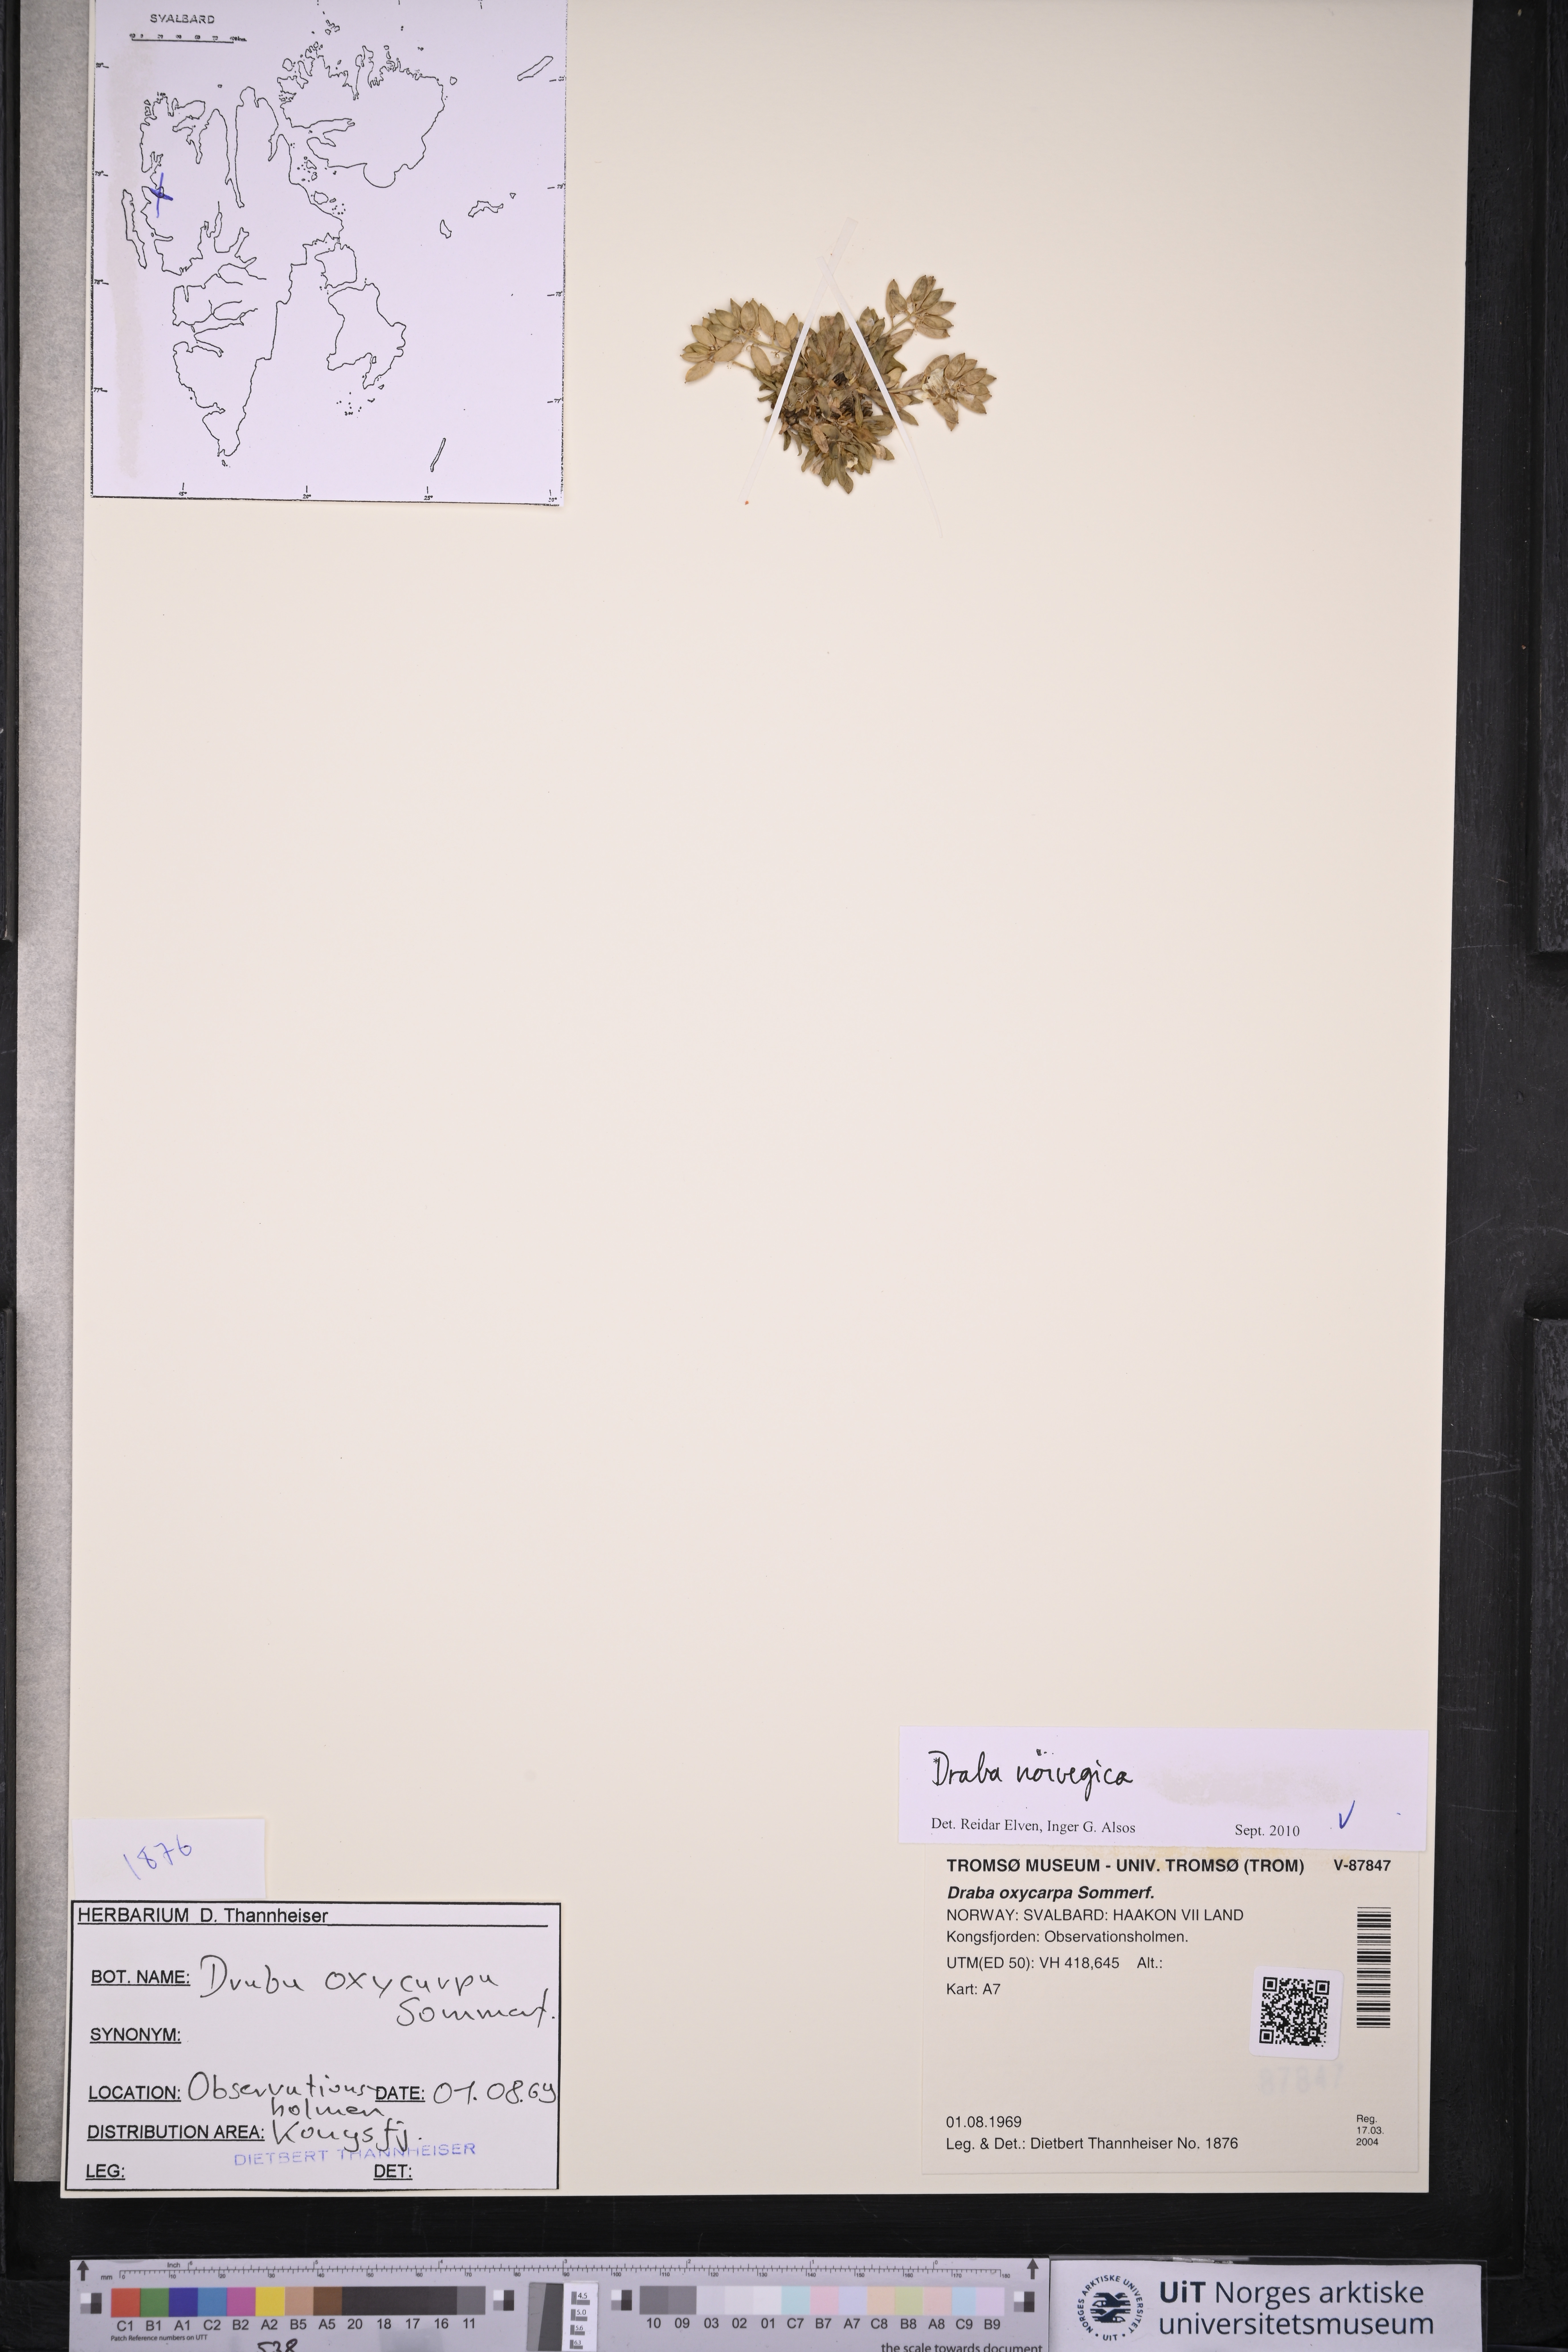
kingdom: Plantae
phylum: Tracheophyta
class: Magnoliopsida
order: Brassicales
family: Brassicaceae
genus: Draba
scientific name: Draba norvegica
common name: Rock whitlowgrass
